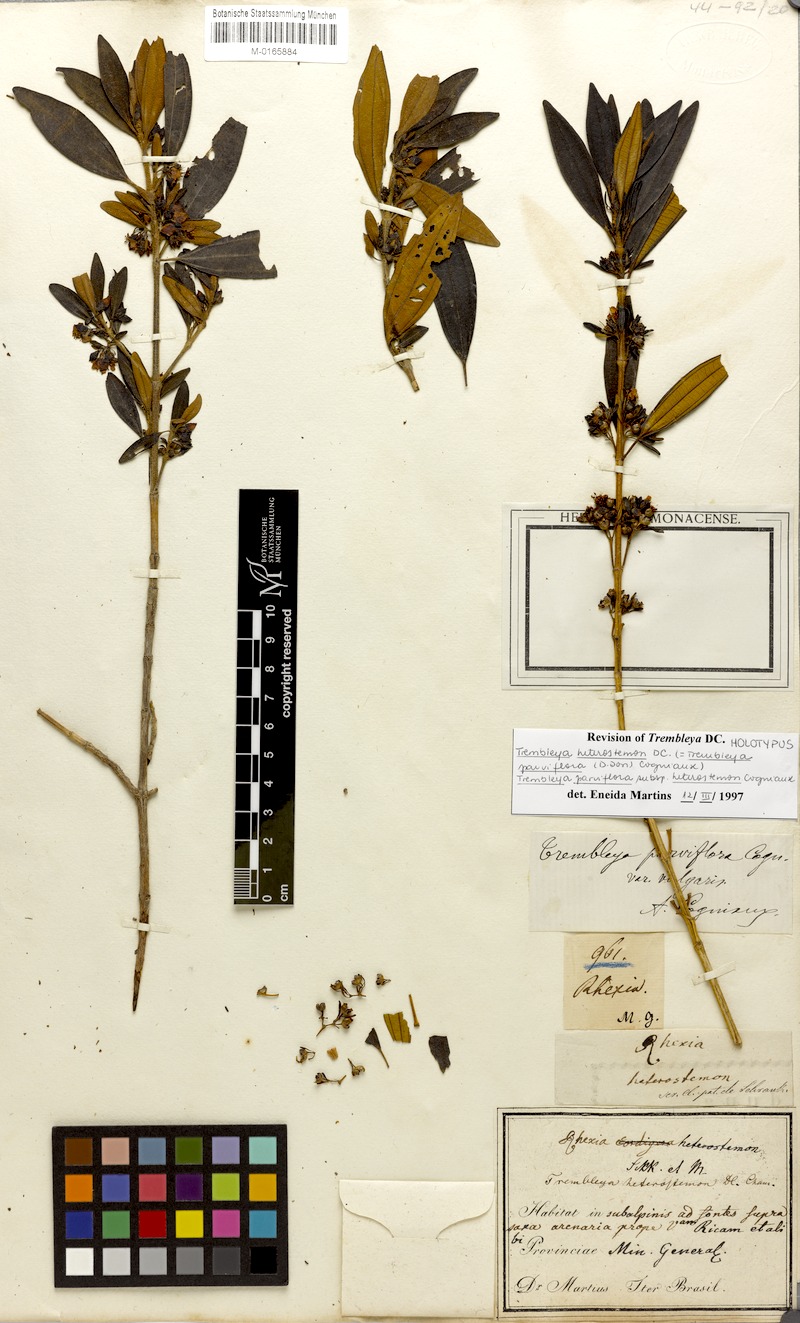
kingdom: Plantae
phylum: Tracheophyta
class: Magnoliopsida
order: Myrtales
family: Melastomataceae
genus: Microlicia
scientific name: Microlicia parviflora
